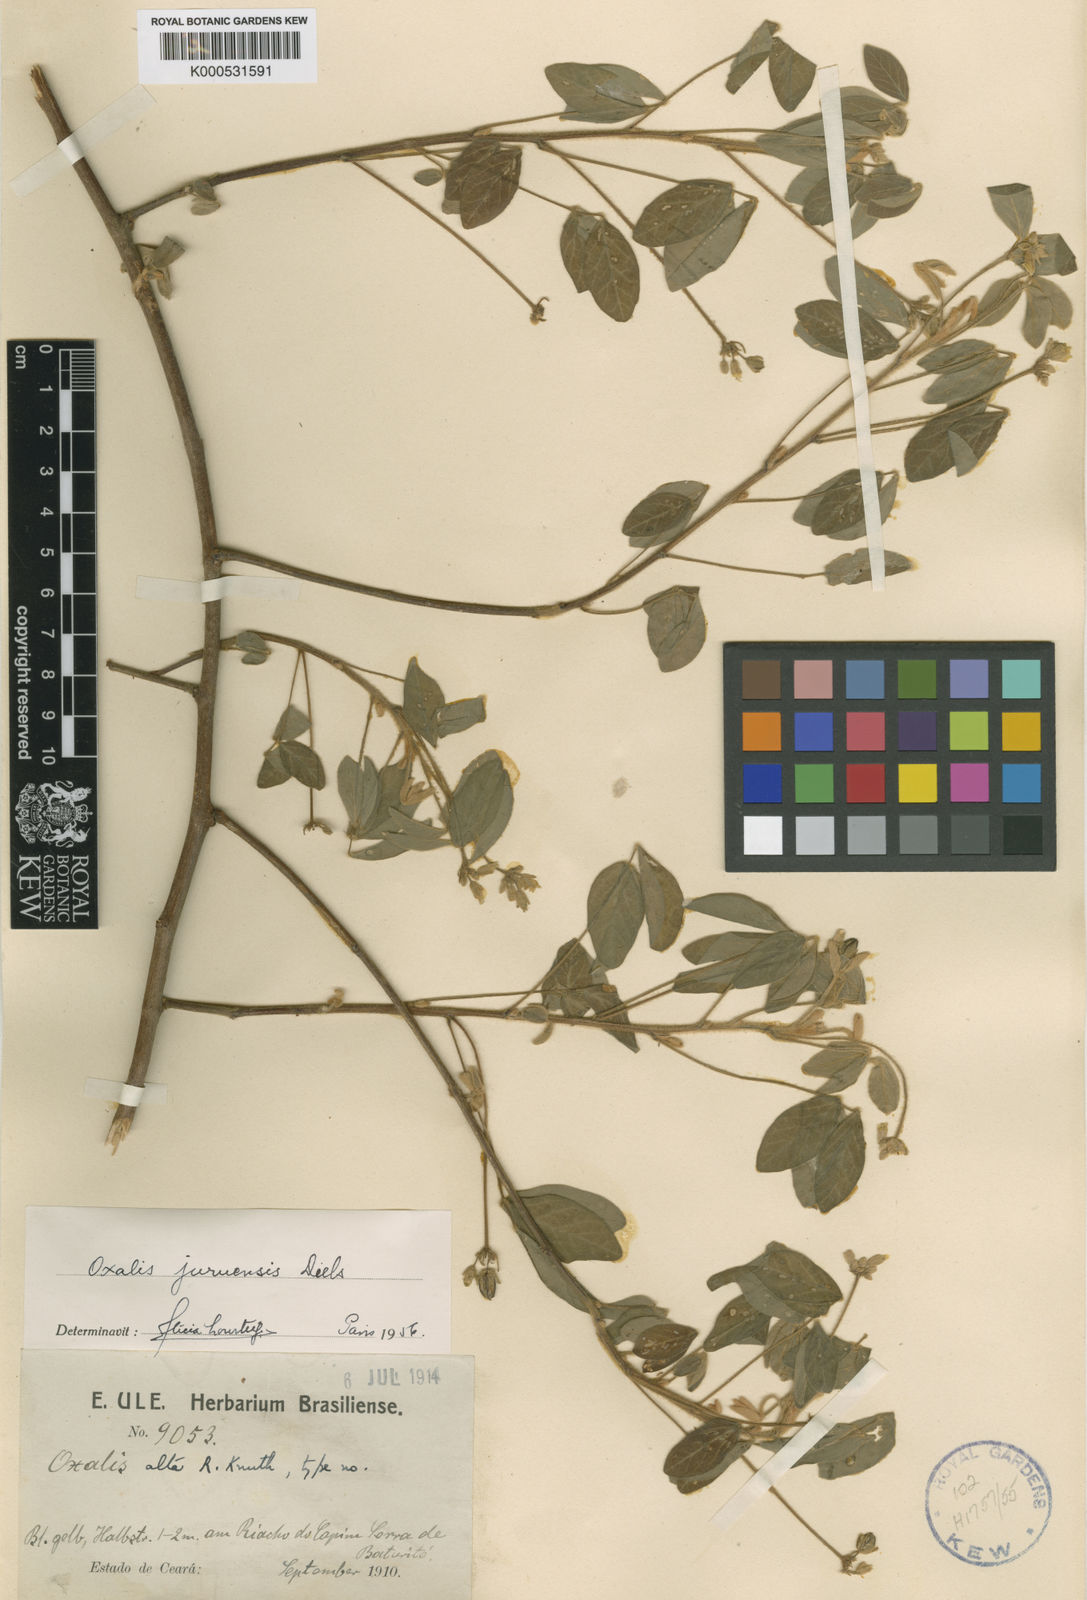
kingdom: Plantae
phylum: Tracheophyta
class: Magnoliopsida
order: Oxalidales
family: Oxalidaceae
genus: Oxalis
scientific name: Oxalis juruensis
